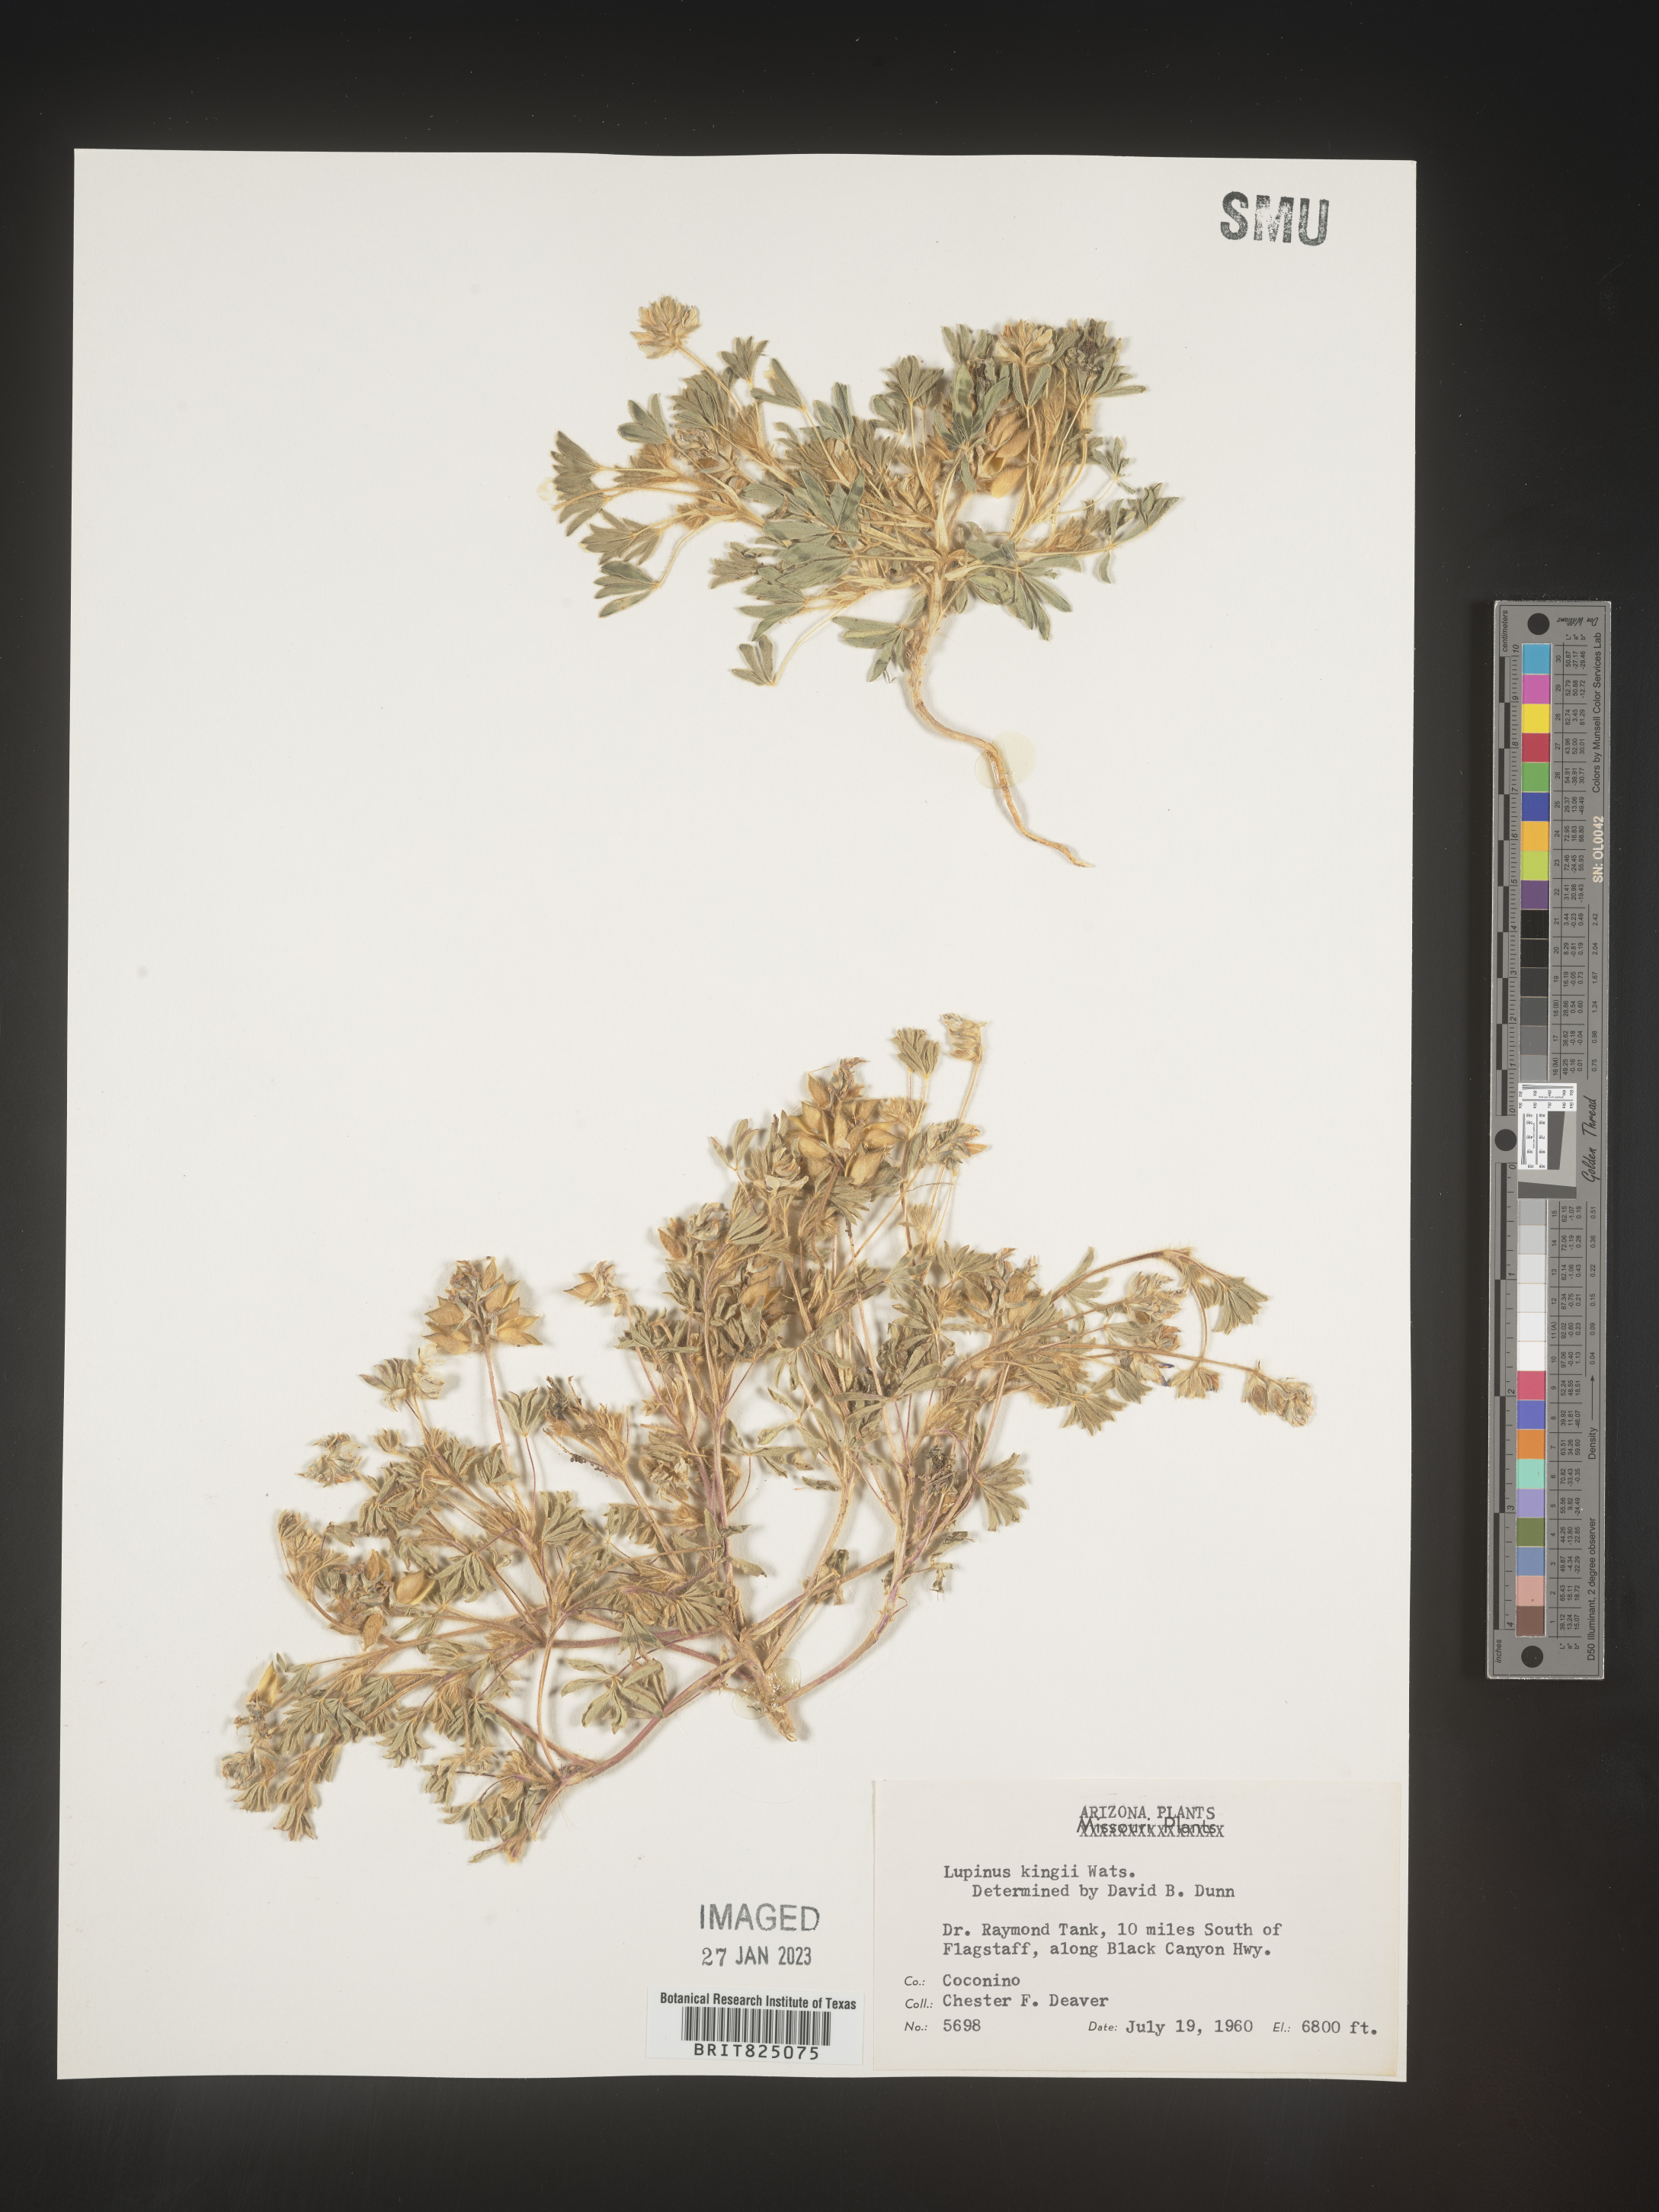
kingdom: Plantae
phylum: Tracheophyta
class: Magnoliopsida
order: Fabales
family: Fabaceae
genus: Lupinus
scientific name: Lupinus
